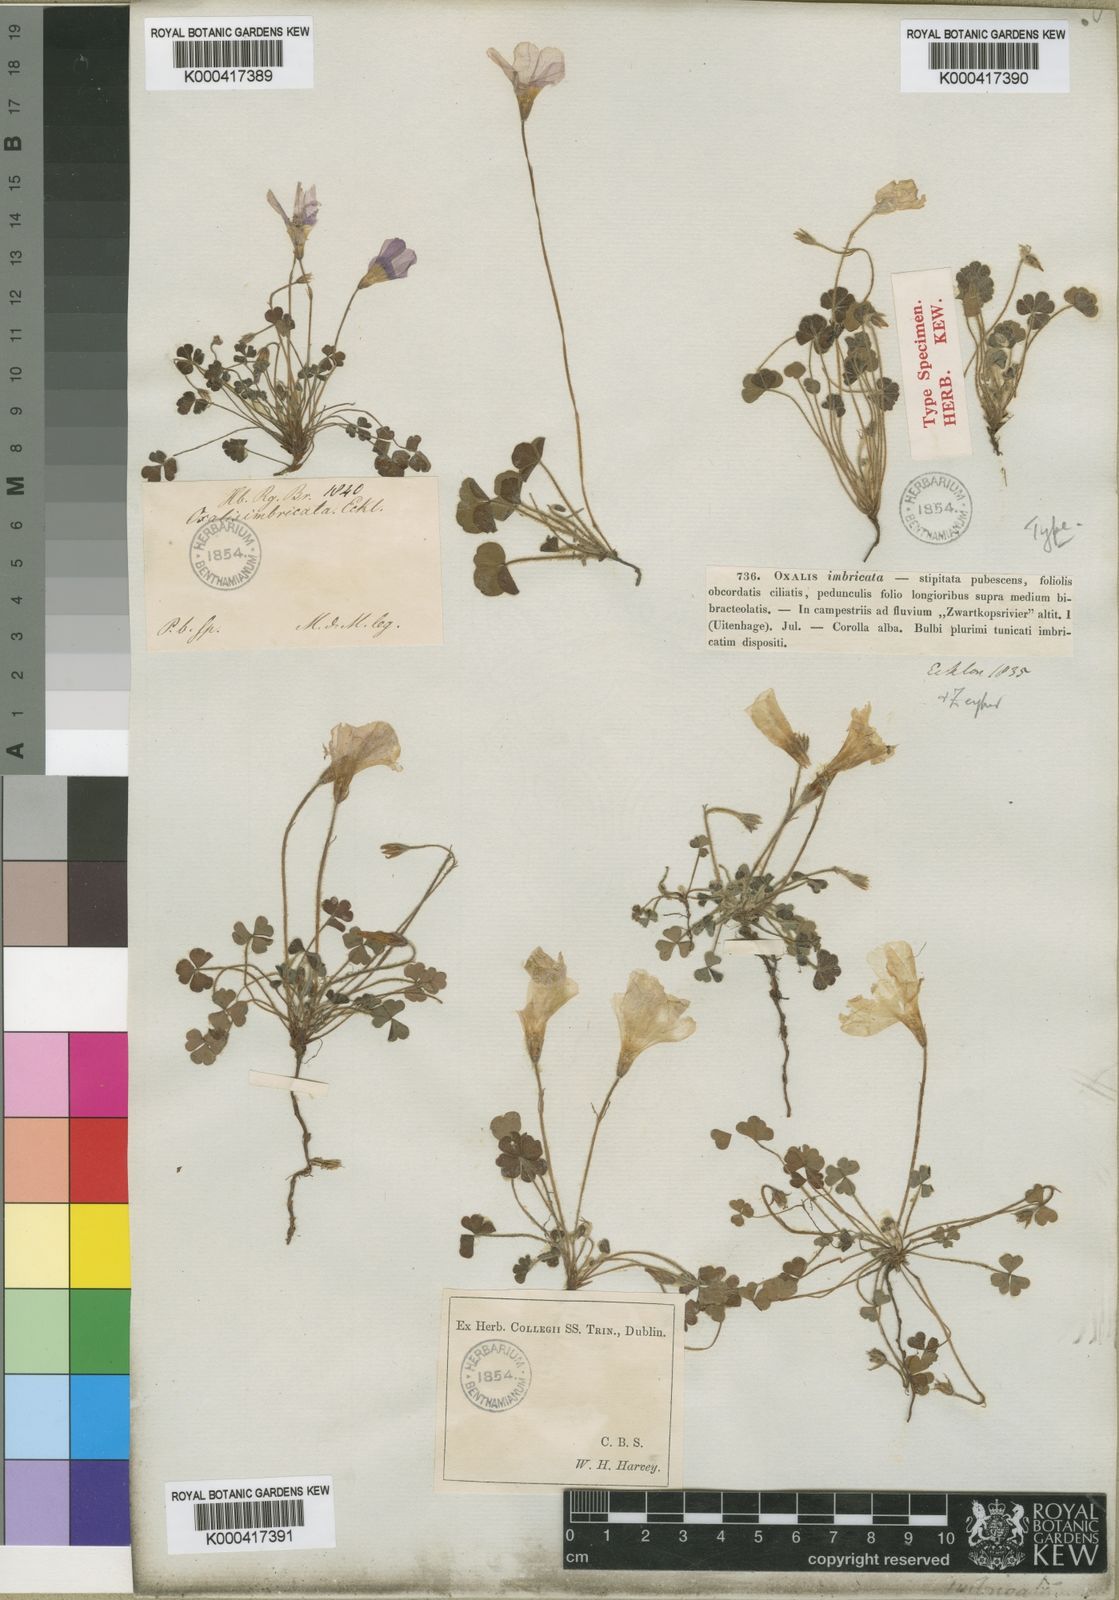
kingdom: Plantae
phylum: Tracheophyta
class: Magnoliopsida
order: Oxalidales
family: Oxalidaceae
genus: Oxalis
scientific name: Oxalis imbricata
